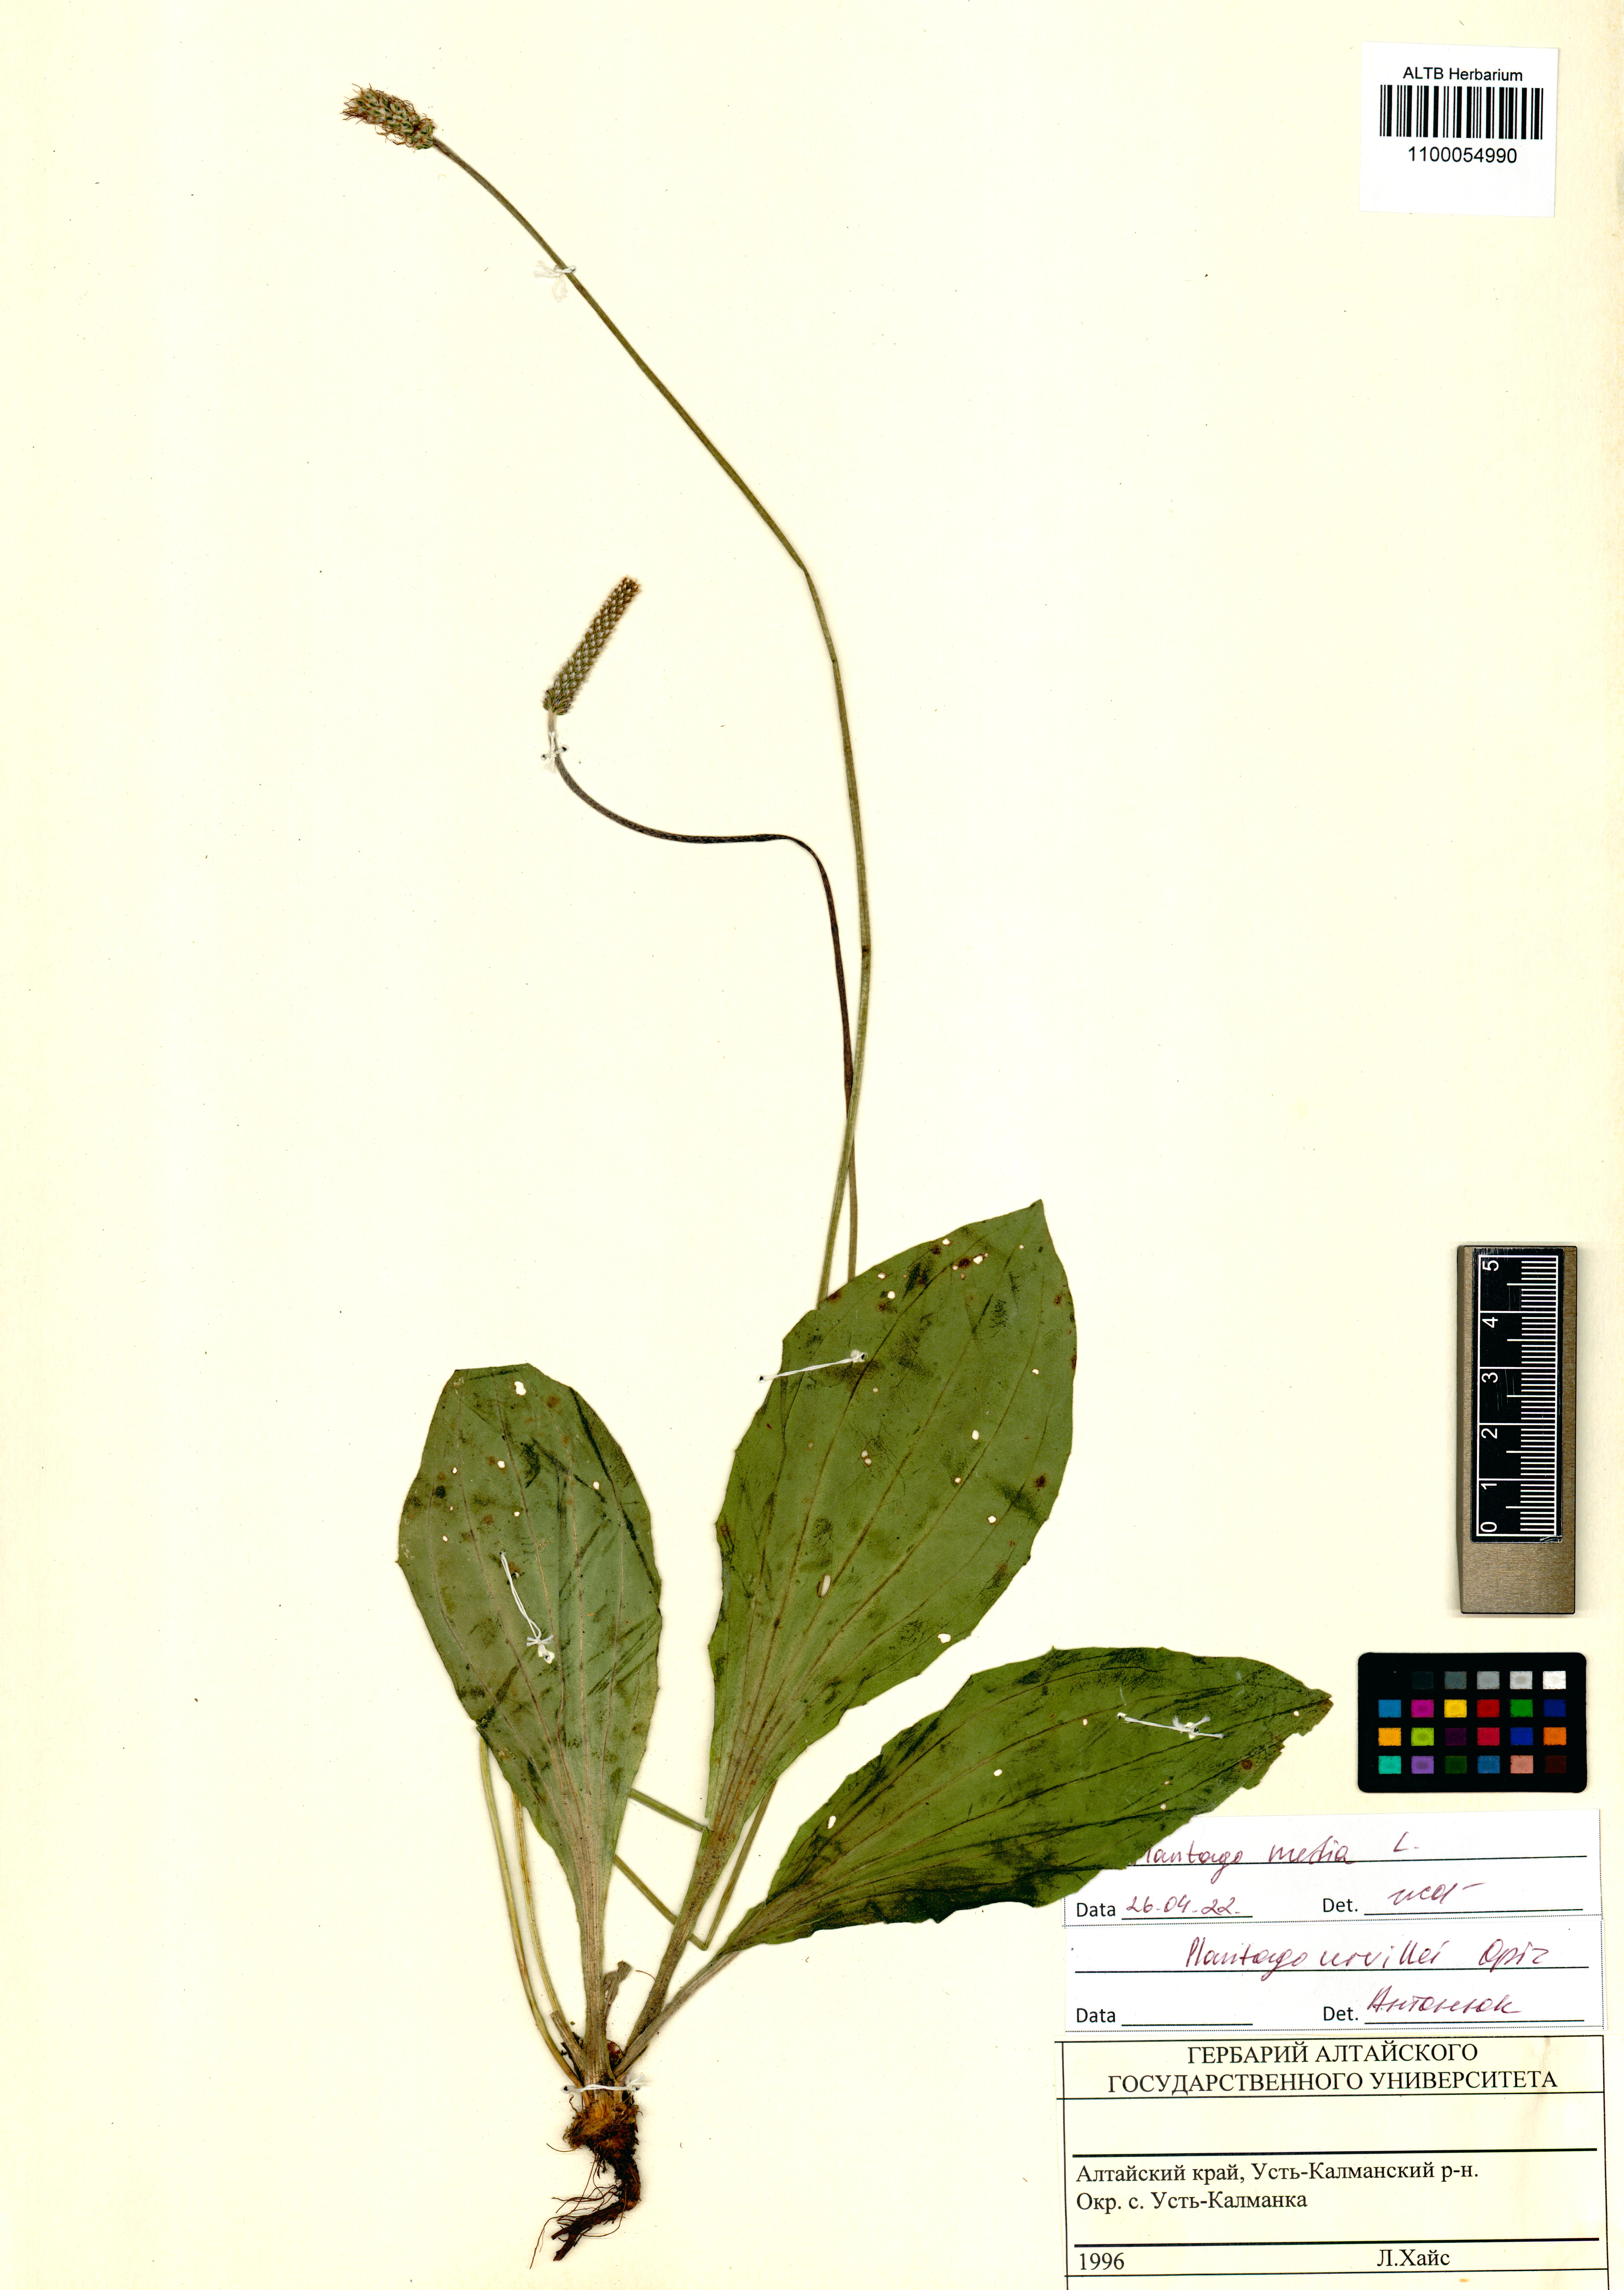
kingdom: Plantae
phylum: Tracheophyta
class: Magnoliopsida
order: Lamiales
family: Plantaginaceae
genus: Plantago
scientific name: Plantago media
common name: Hoary plantain
